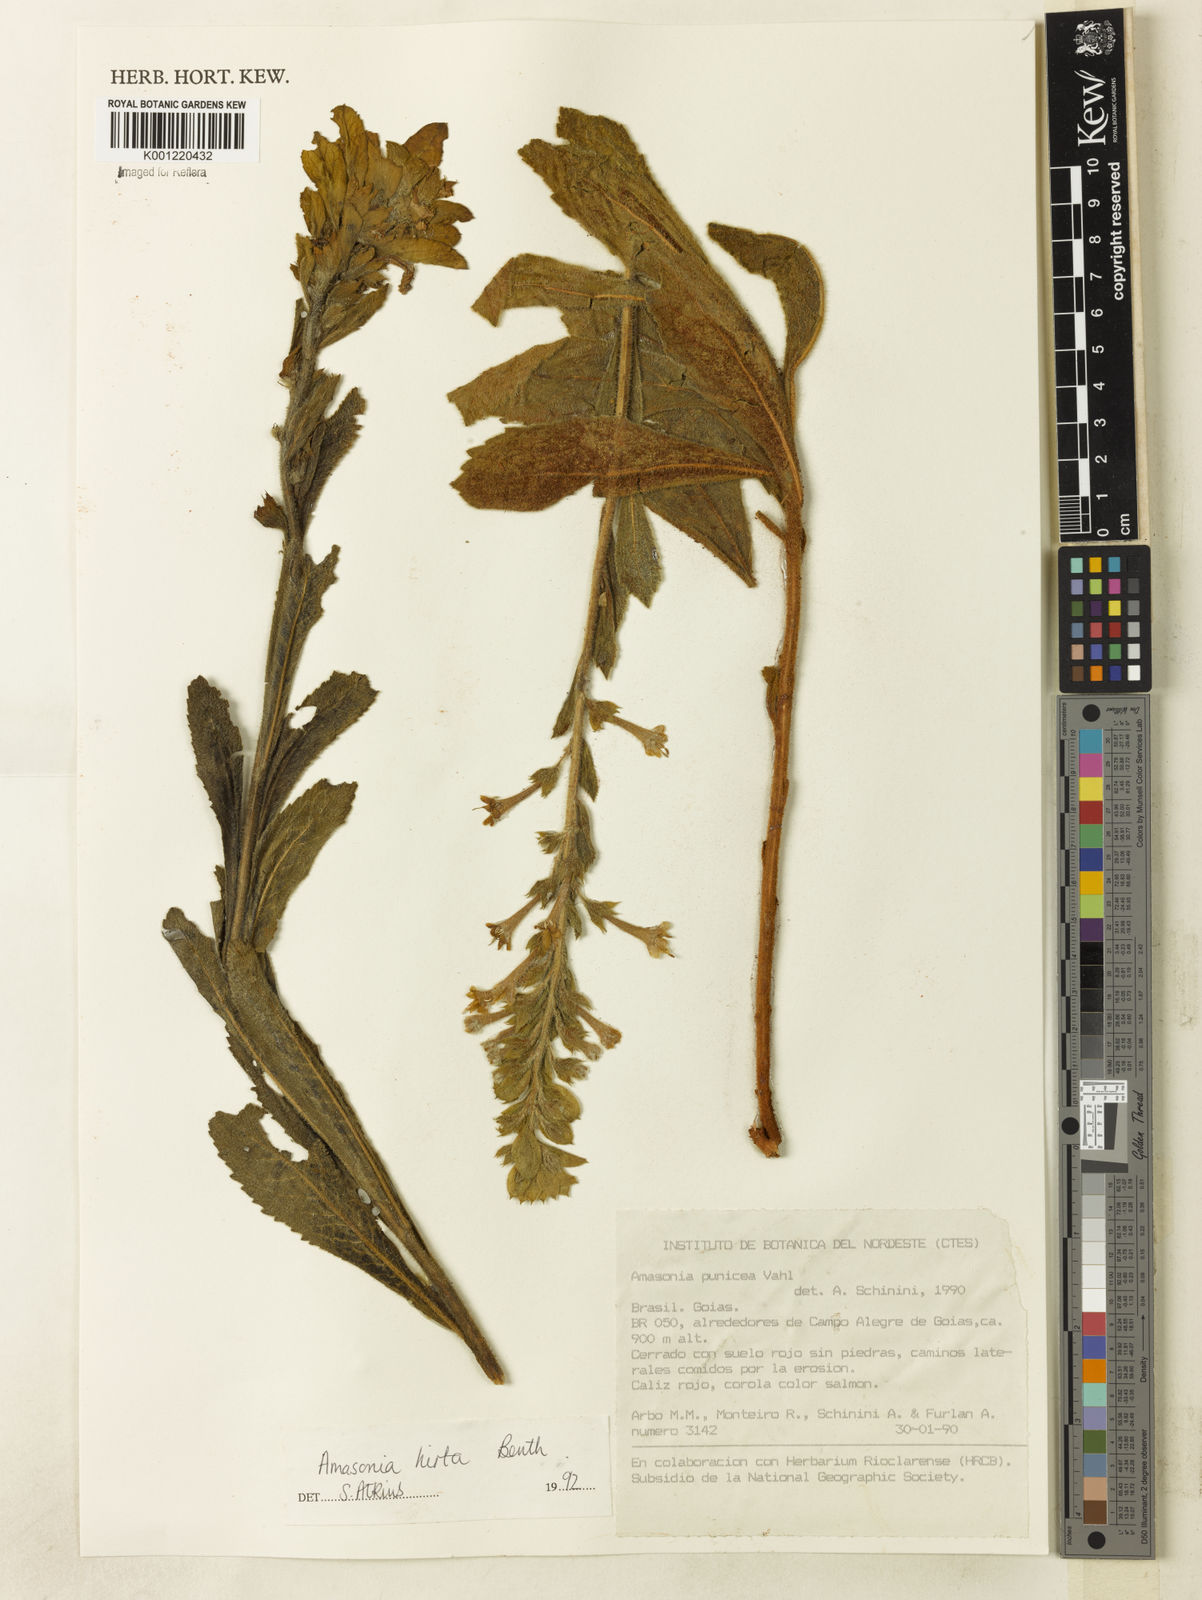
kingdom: Plantae
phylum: Tracheophyta
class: Magnoliopsida
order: Lamiales
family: Lamiaceae
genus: Amasonia
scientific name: Amasonia hirta
